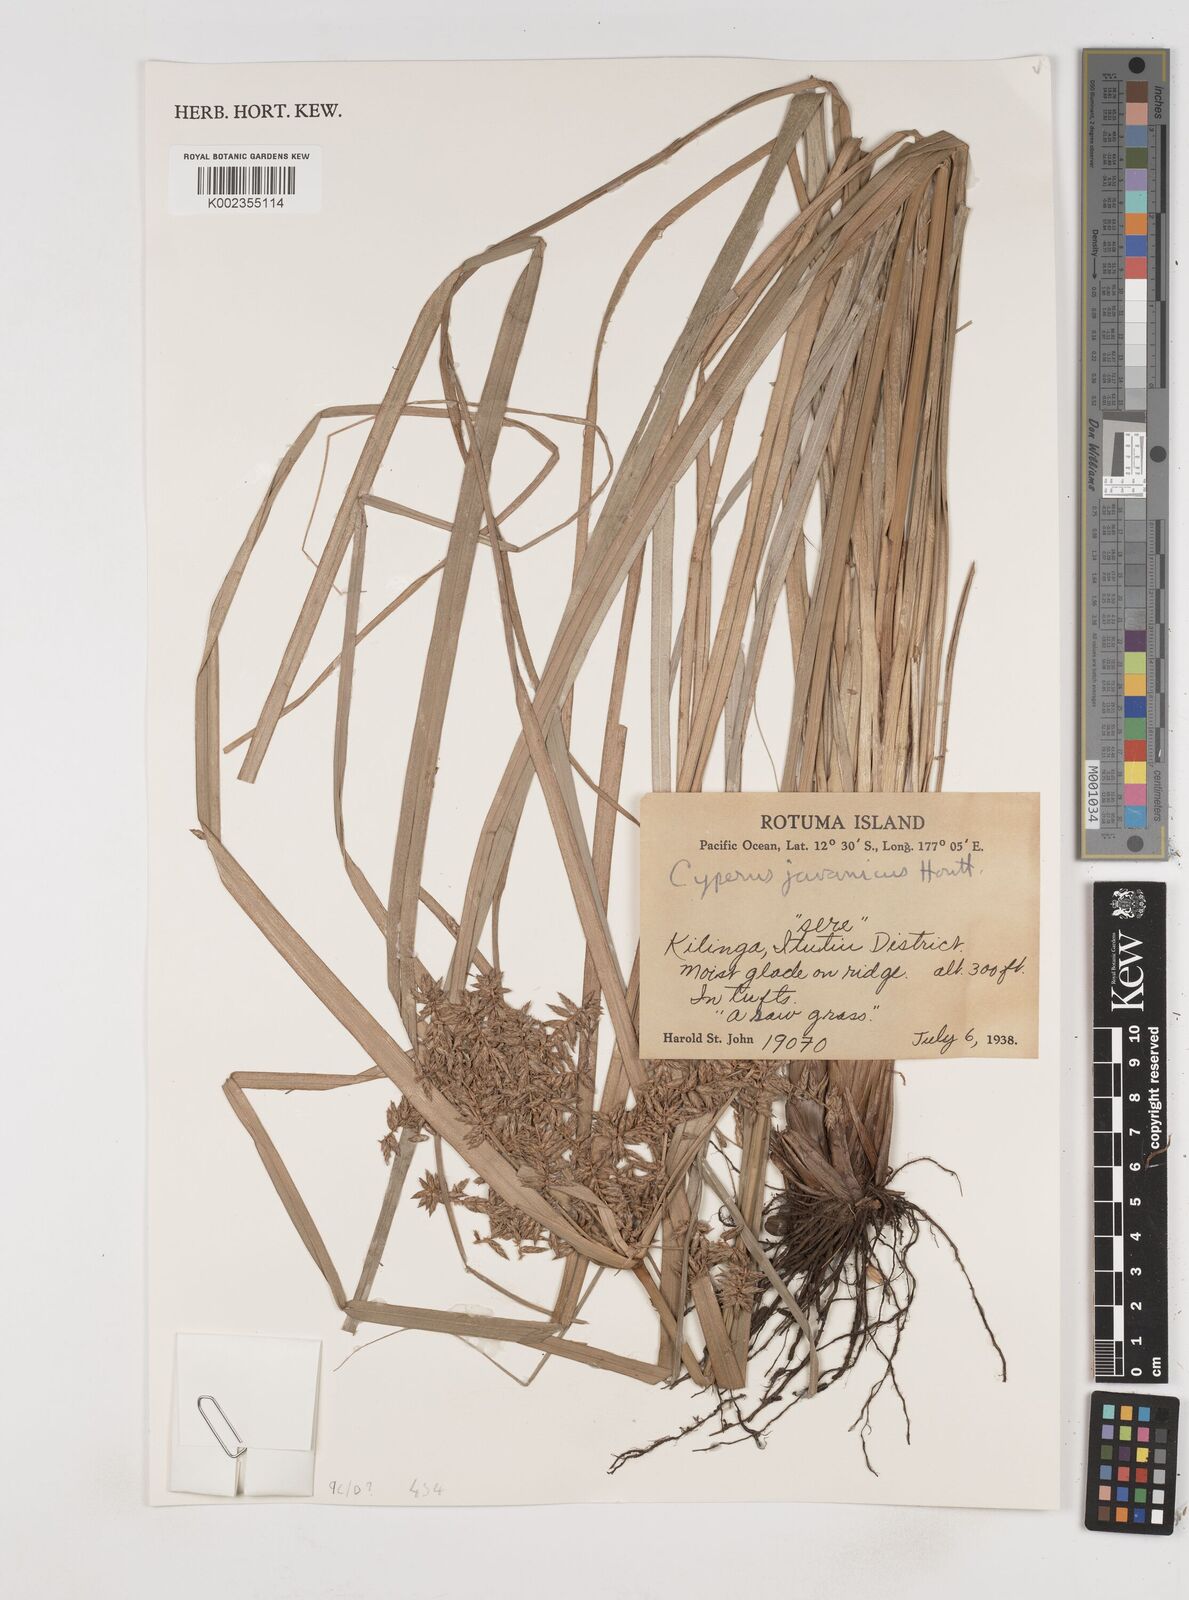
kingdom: Plantae
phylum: Tracheophyta
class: Liliopsida
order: Poales
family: Cyperaceae
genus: Cyperus
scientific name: Cyperus javanicus
